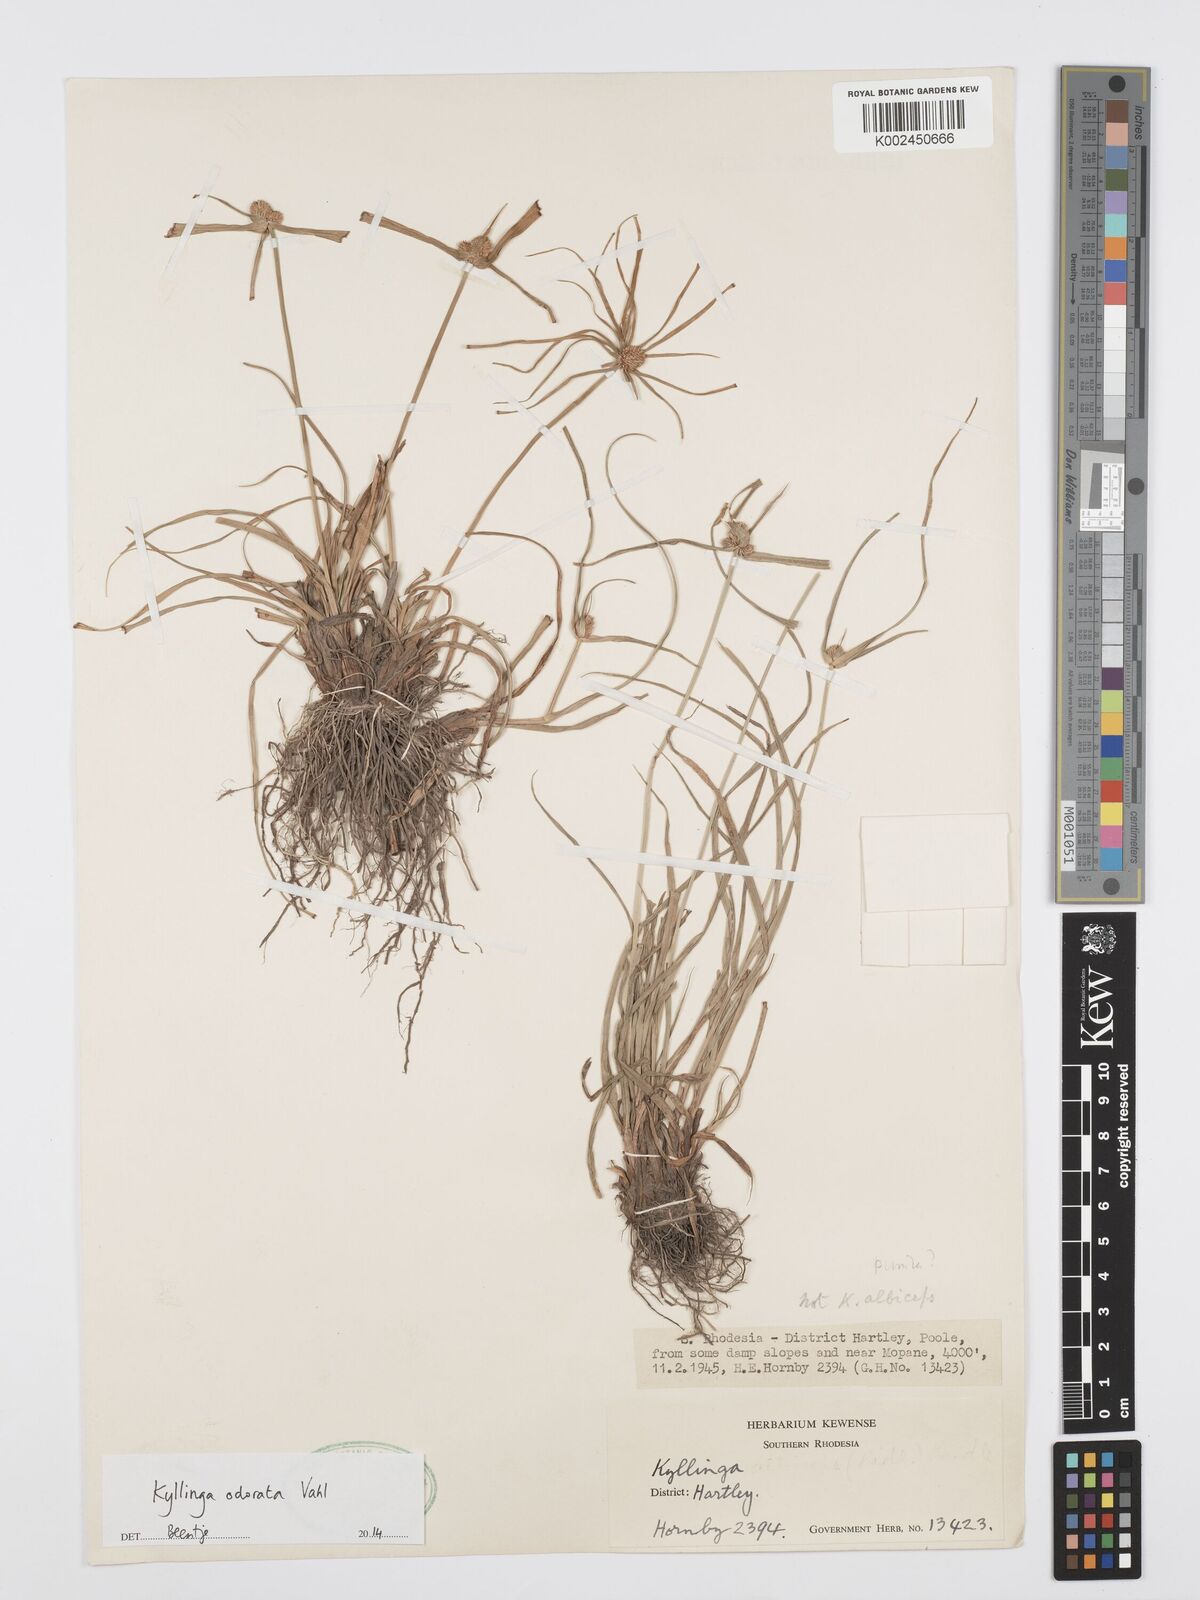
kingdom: Plantae
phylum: Tracheophyta
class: Liliopsida
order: Poales
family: Cyperaceae
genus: Cyperus
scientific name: Cyperus
